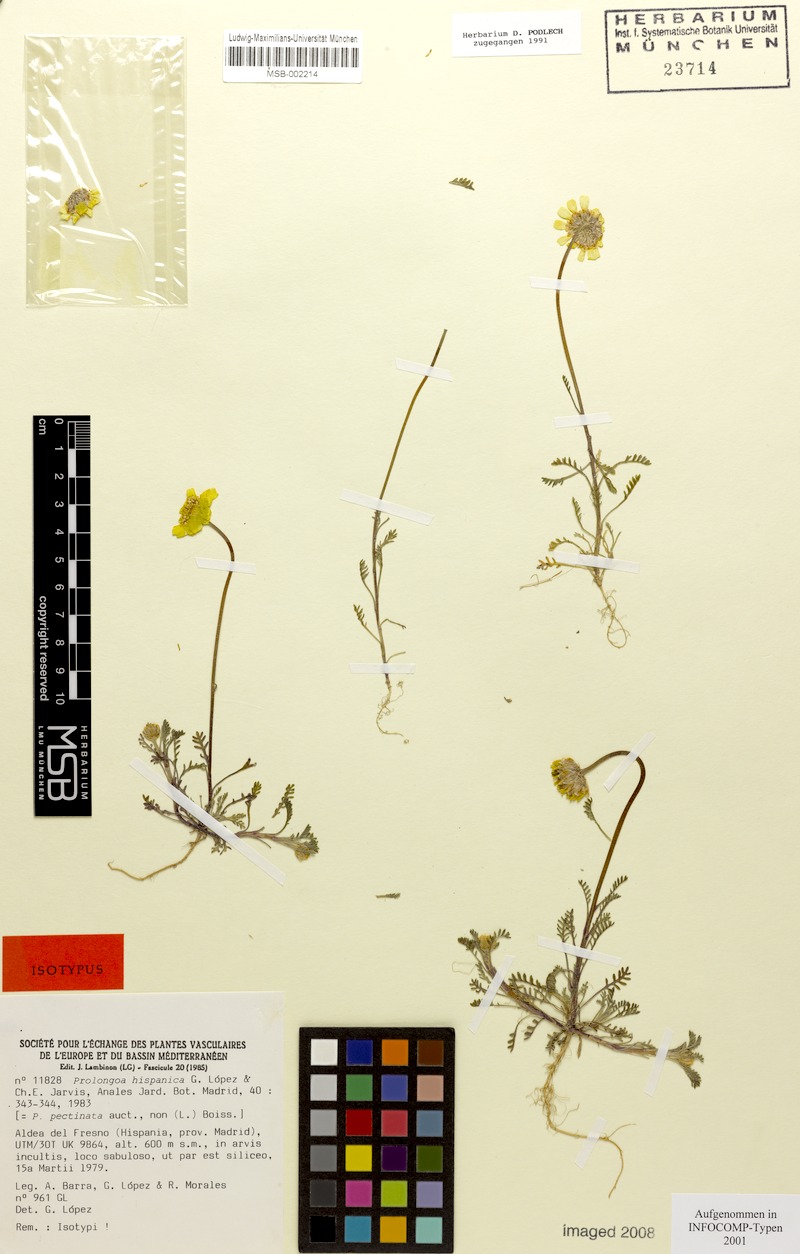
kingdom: Plantae
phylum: Tracheophyta
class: Magnoliopsida
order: Asterales
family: Asteraceae
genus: Prolongoa
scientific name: Prolongoa hispanica
